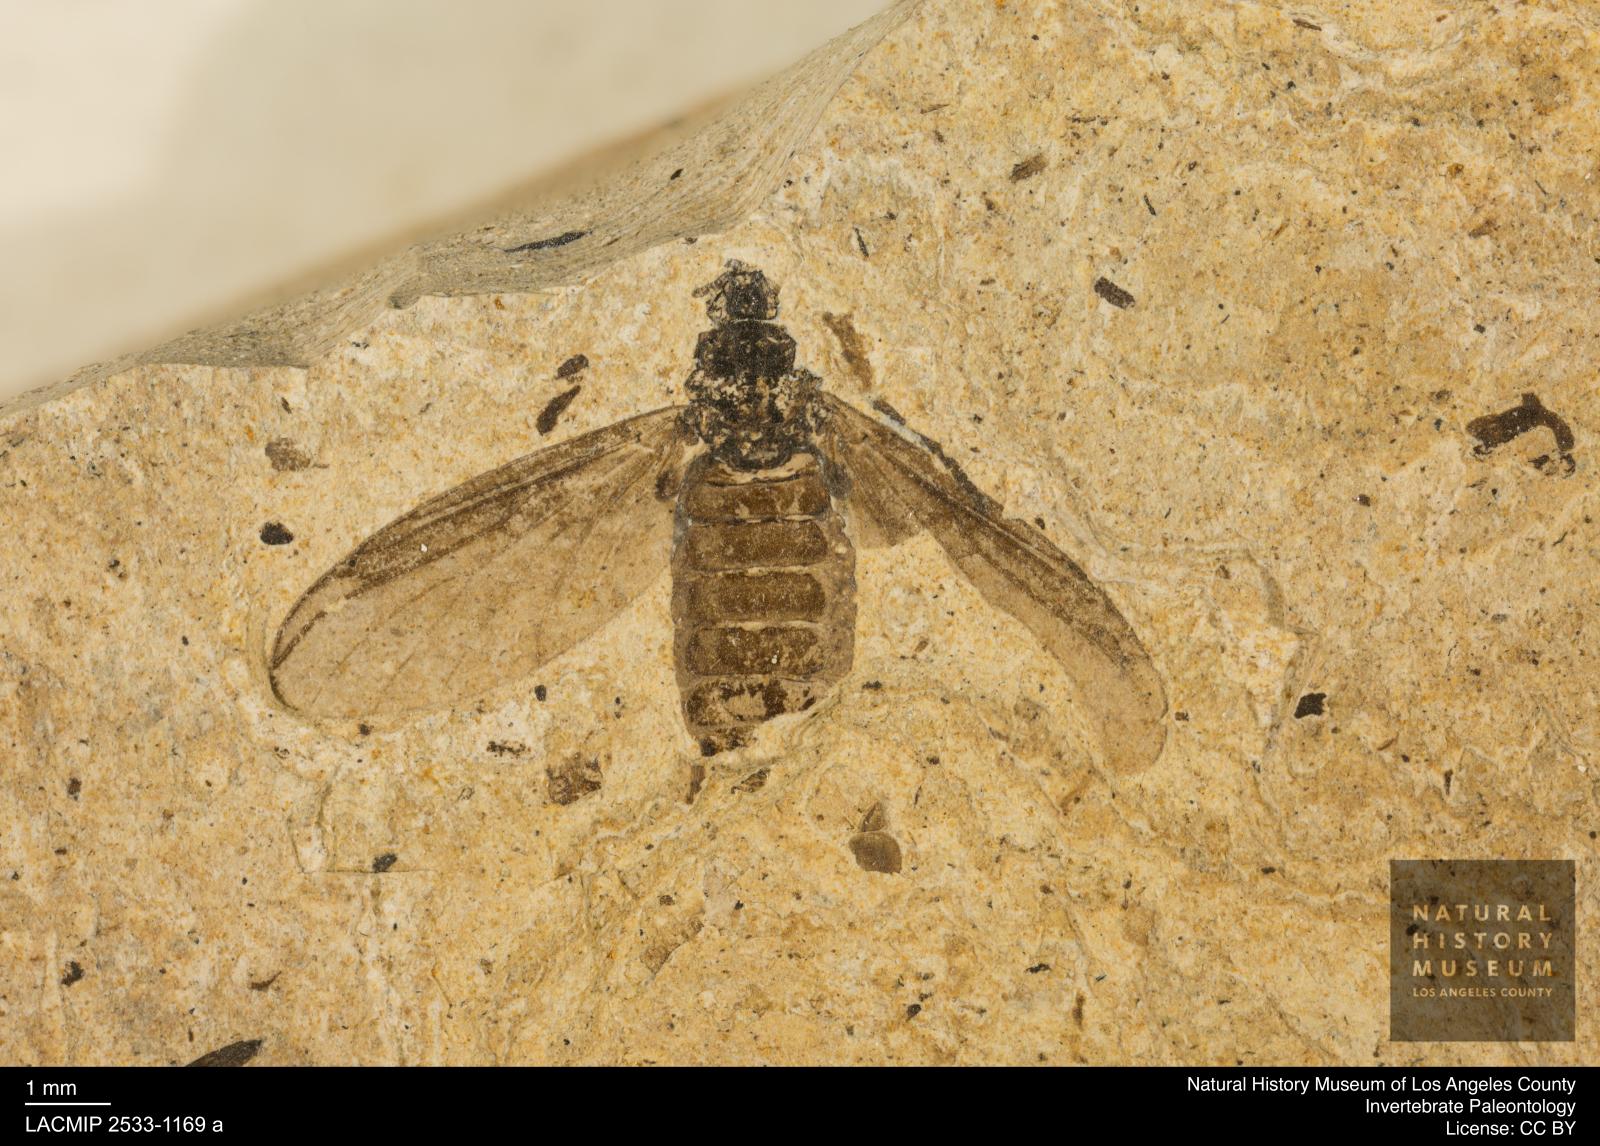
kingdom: Animalia
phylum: Arthropoda
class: Insecta
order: Diptera
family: Bibionidae
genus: Plecia
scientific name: Plecia stygia
